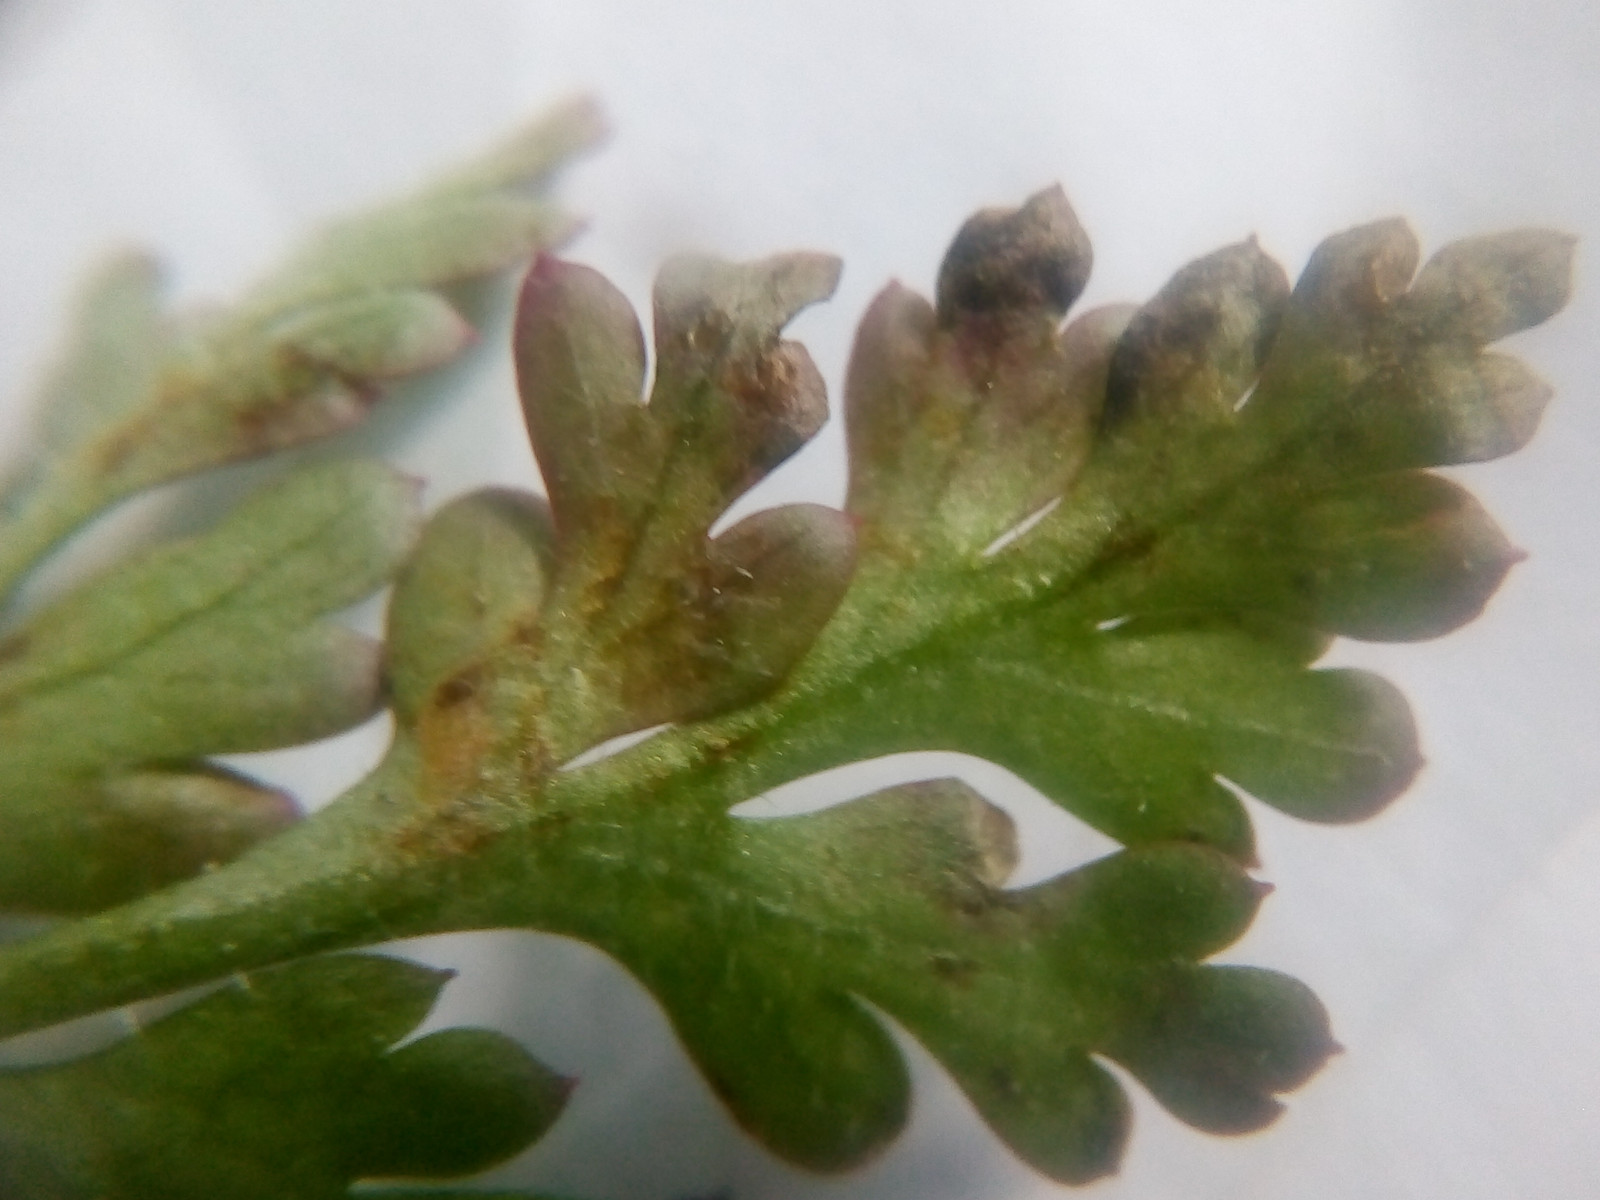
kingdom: Fungi
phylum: Ascomycota
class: Dothideomycetes
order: Mycosphaerellales
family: Mycosphaerellaceae
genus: Septoria
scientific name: Septoria geranii
